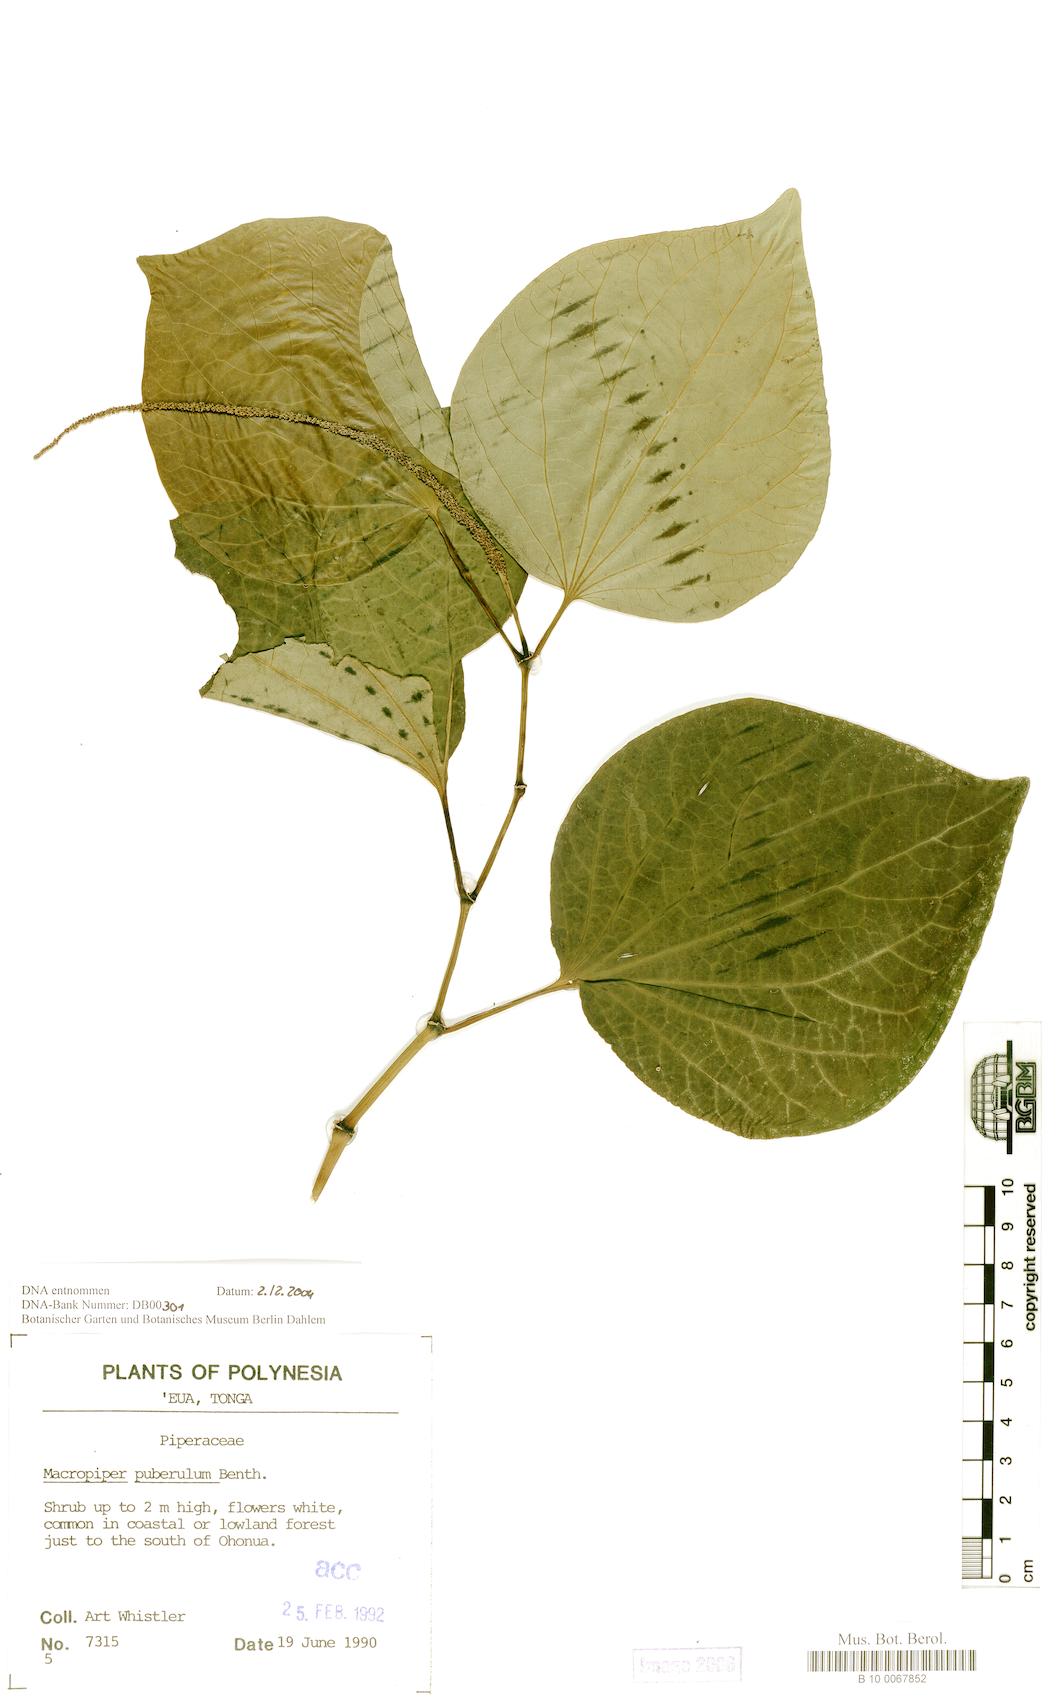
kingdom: Plantae
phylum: Tracheophyta
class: Magnoliopsida
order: Piperales
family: Piperaceae
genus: Macropiper
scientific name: Macropiper puberulum
